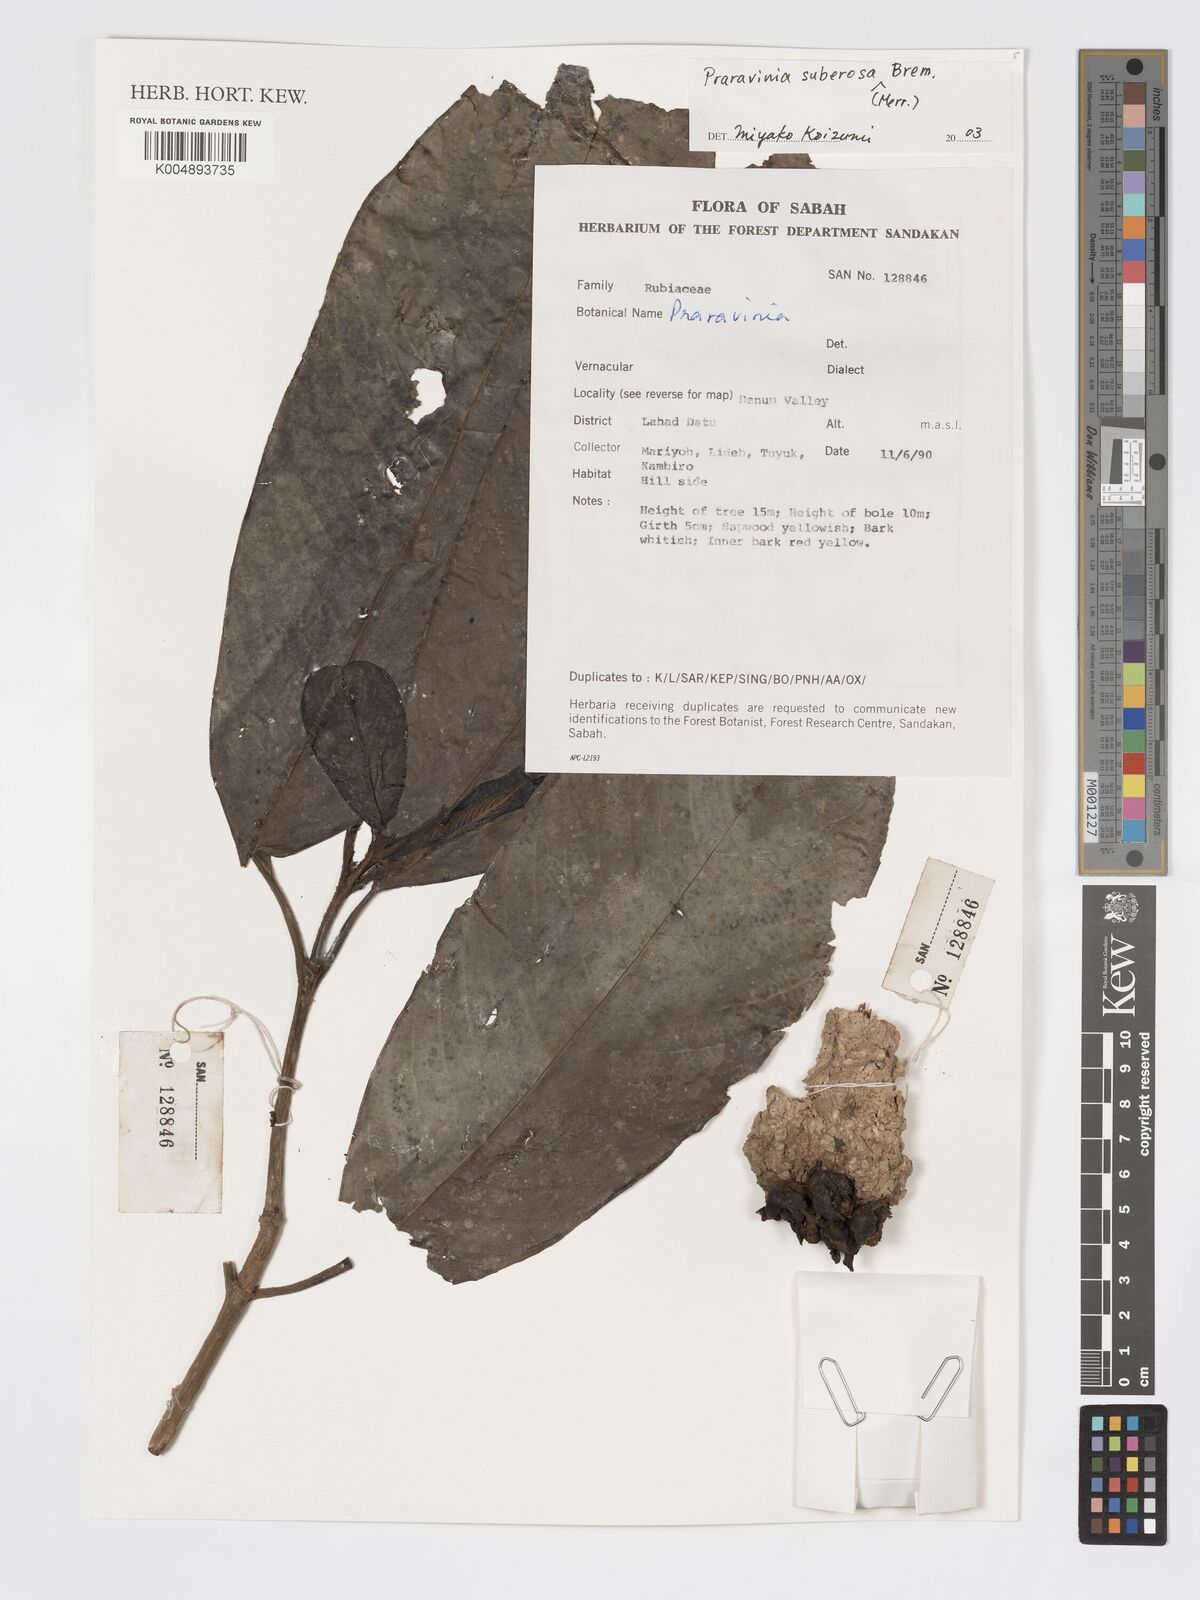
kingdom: Plantae
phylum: Tracheophyta
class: Magnoliopsida
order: Gentianales
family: Rubiaceae
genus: Praravinia
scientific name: Praravinia suberosa
